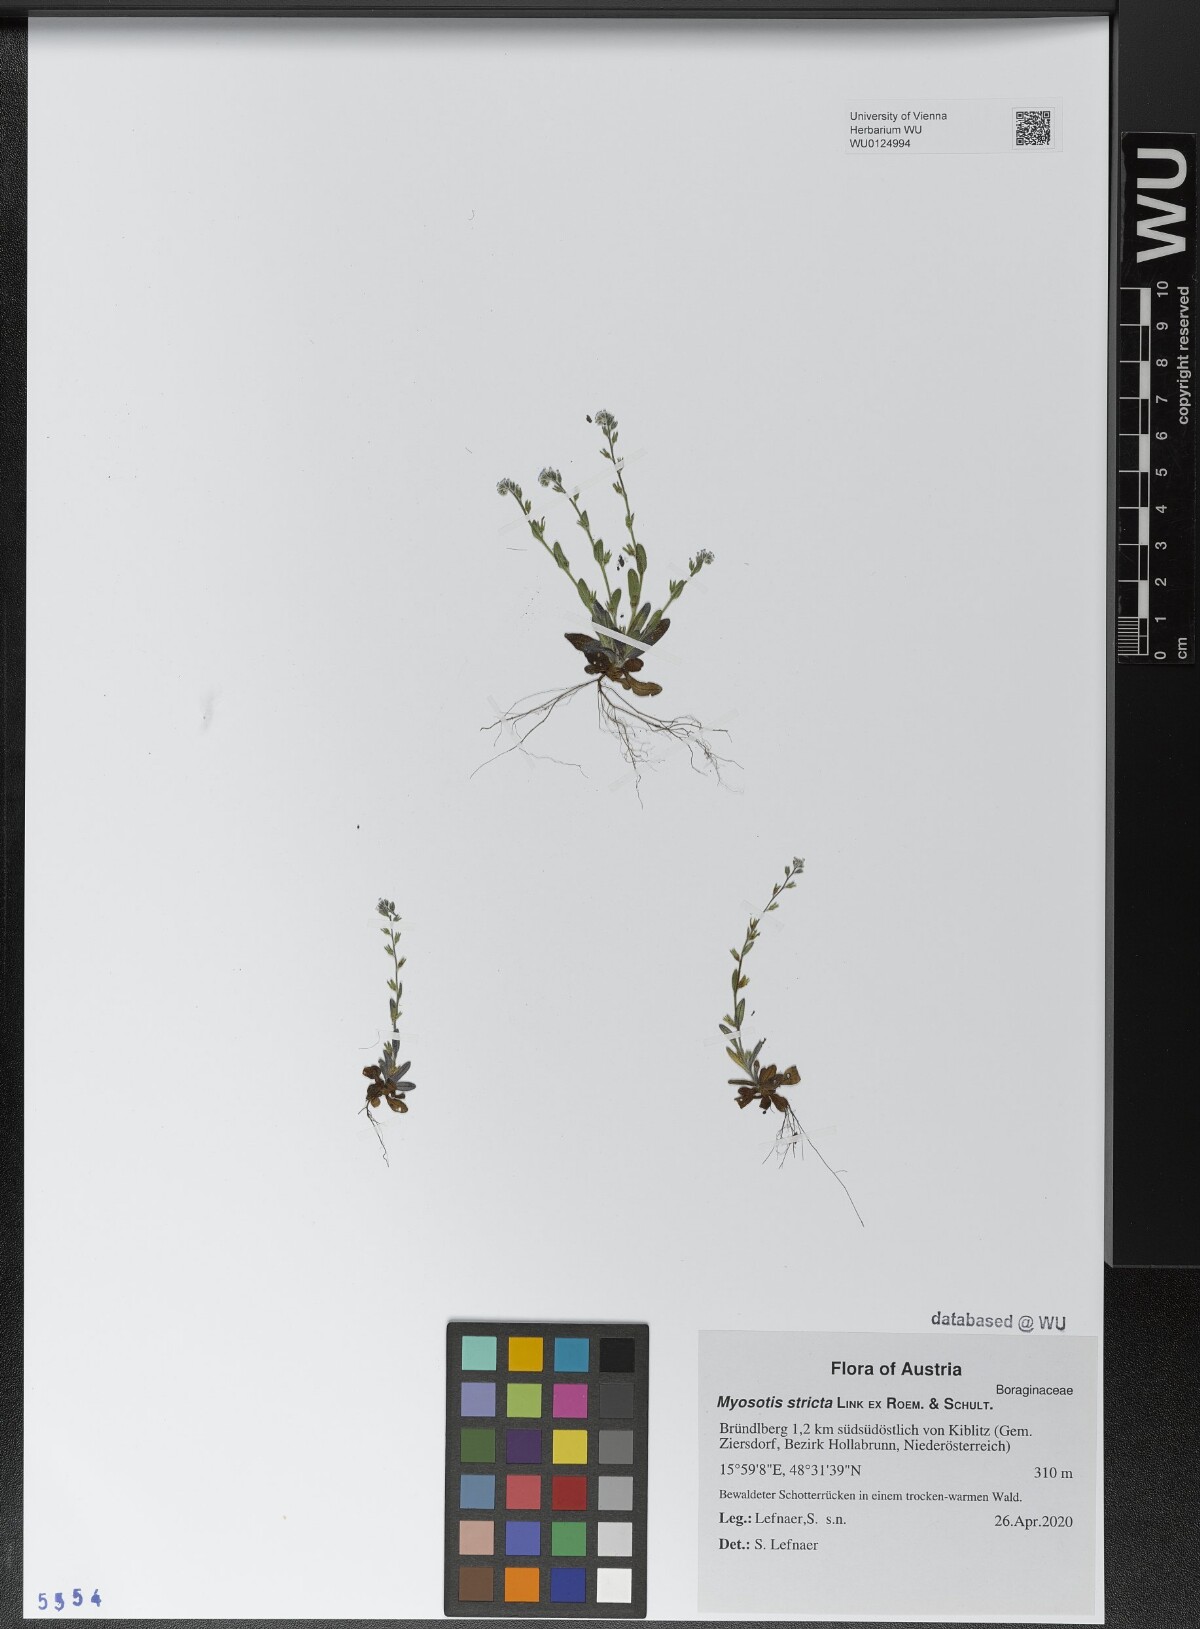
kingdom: Plantae
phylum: Tracheophyta
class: Magnoliopsida
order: Boraginales
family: Boraginaceae
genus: Myosotis
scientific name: Myosotis stricta
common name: Strict forget-me-not
